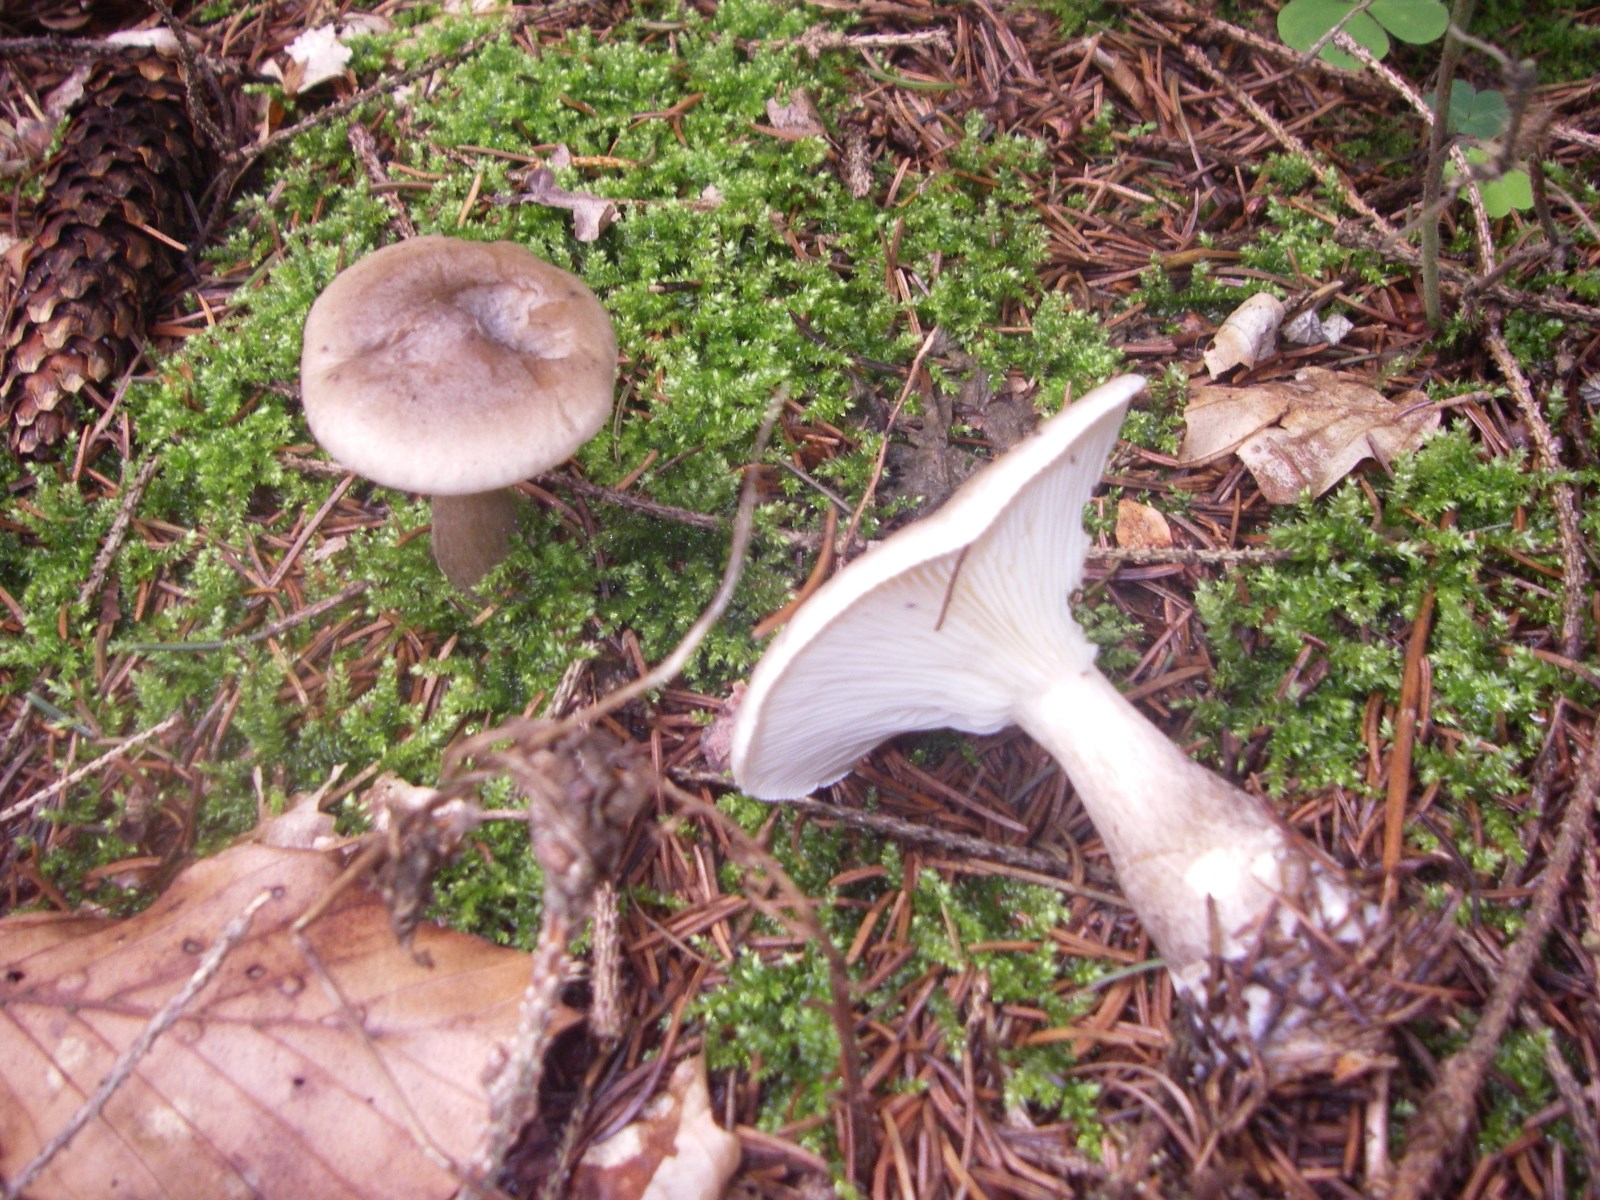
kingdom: Fungi
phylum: Basidiomycota
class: Agaricomycetes
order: Agaricales
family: Hygrophoraceae
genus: Ampulloclitocybe
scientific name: Ampulloclitocybe clavipes
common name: køllefod
